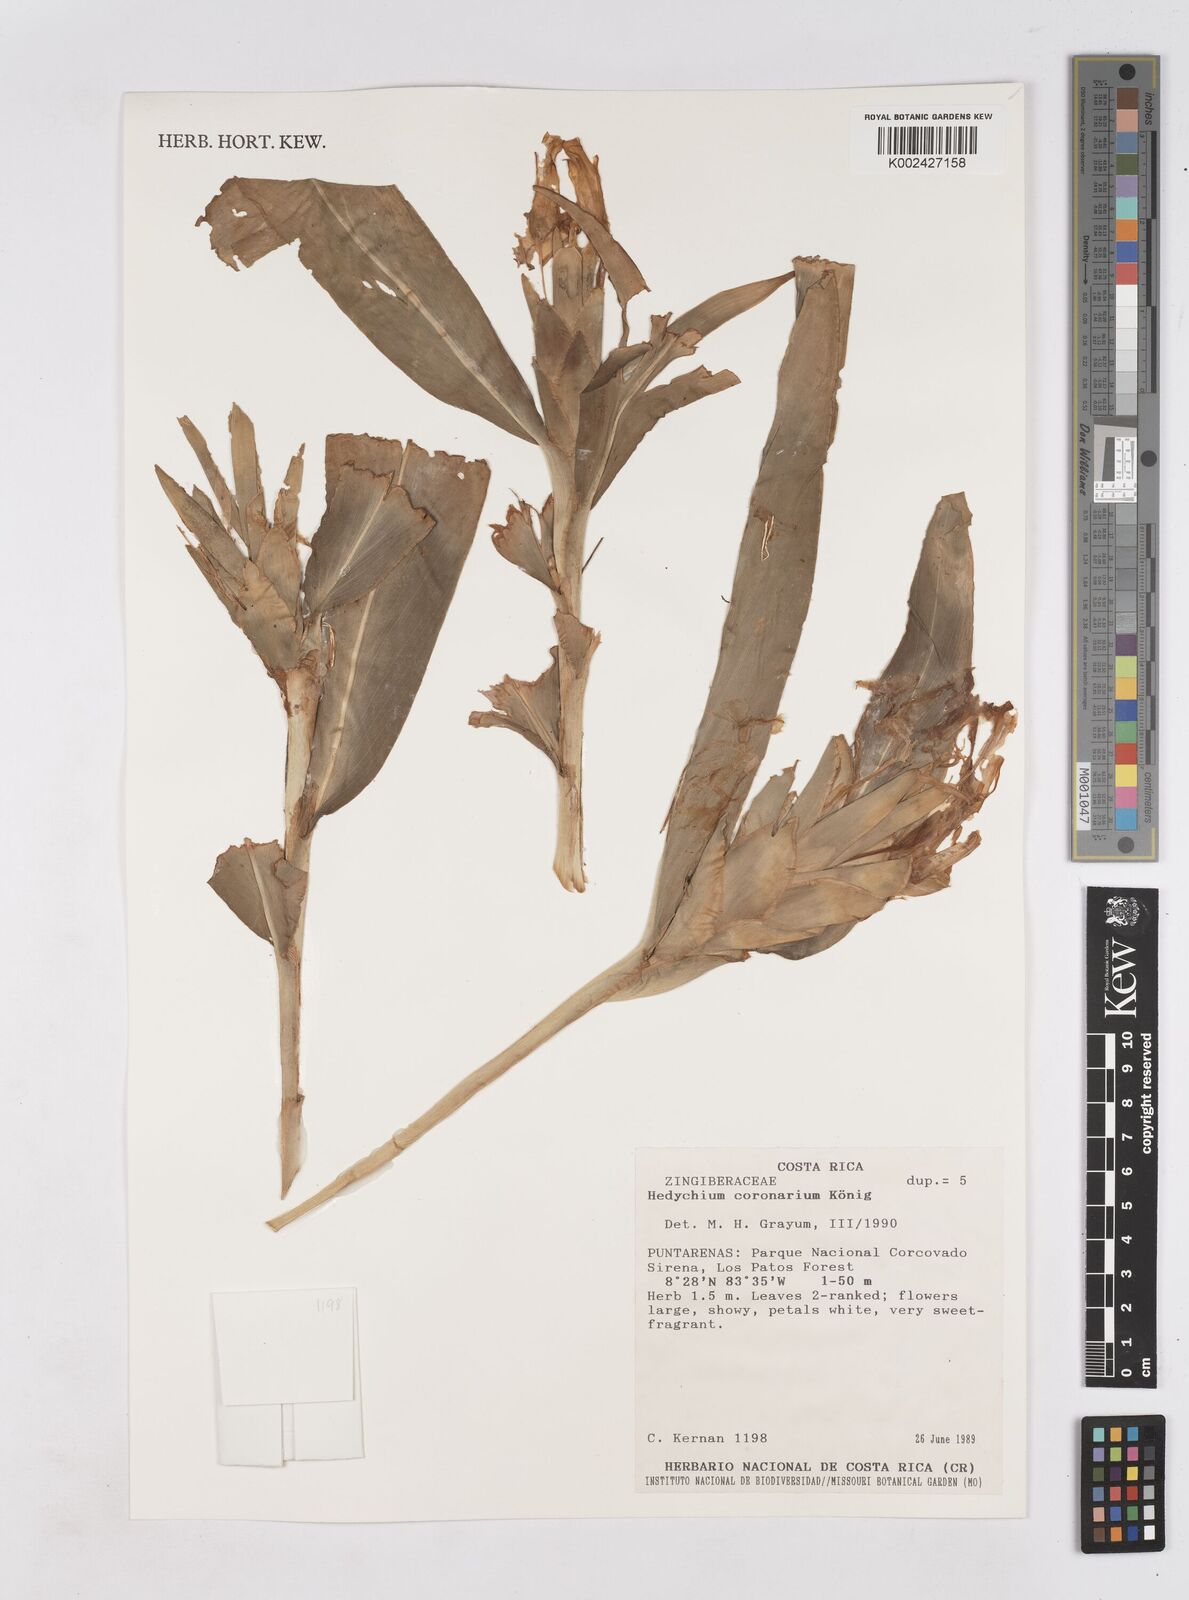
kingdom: Plantae
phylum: Tracheophyta
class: Liliopsida
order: Zingiberales
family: Zingiberaceae
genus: Hedychium
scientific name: Hedychium coronarium
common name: White garland-lily
